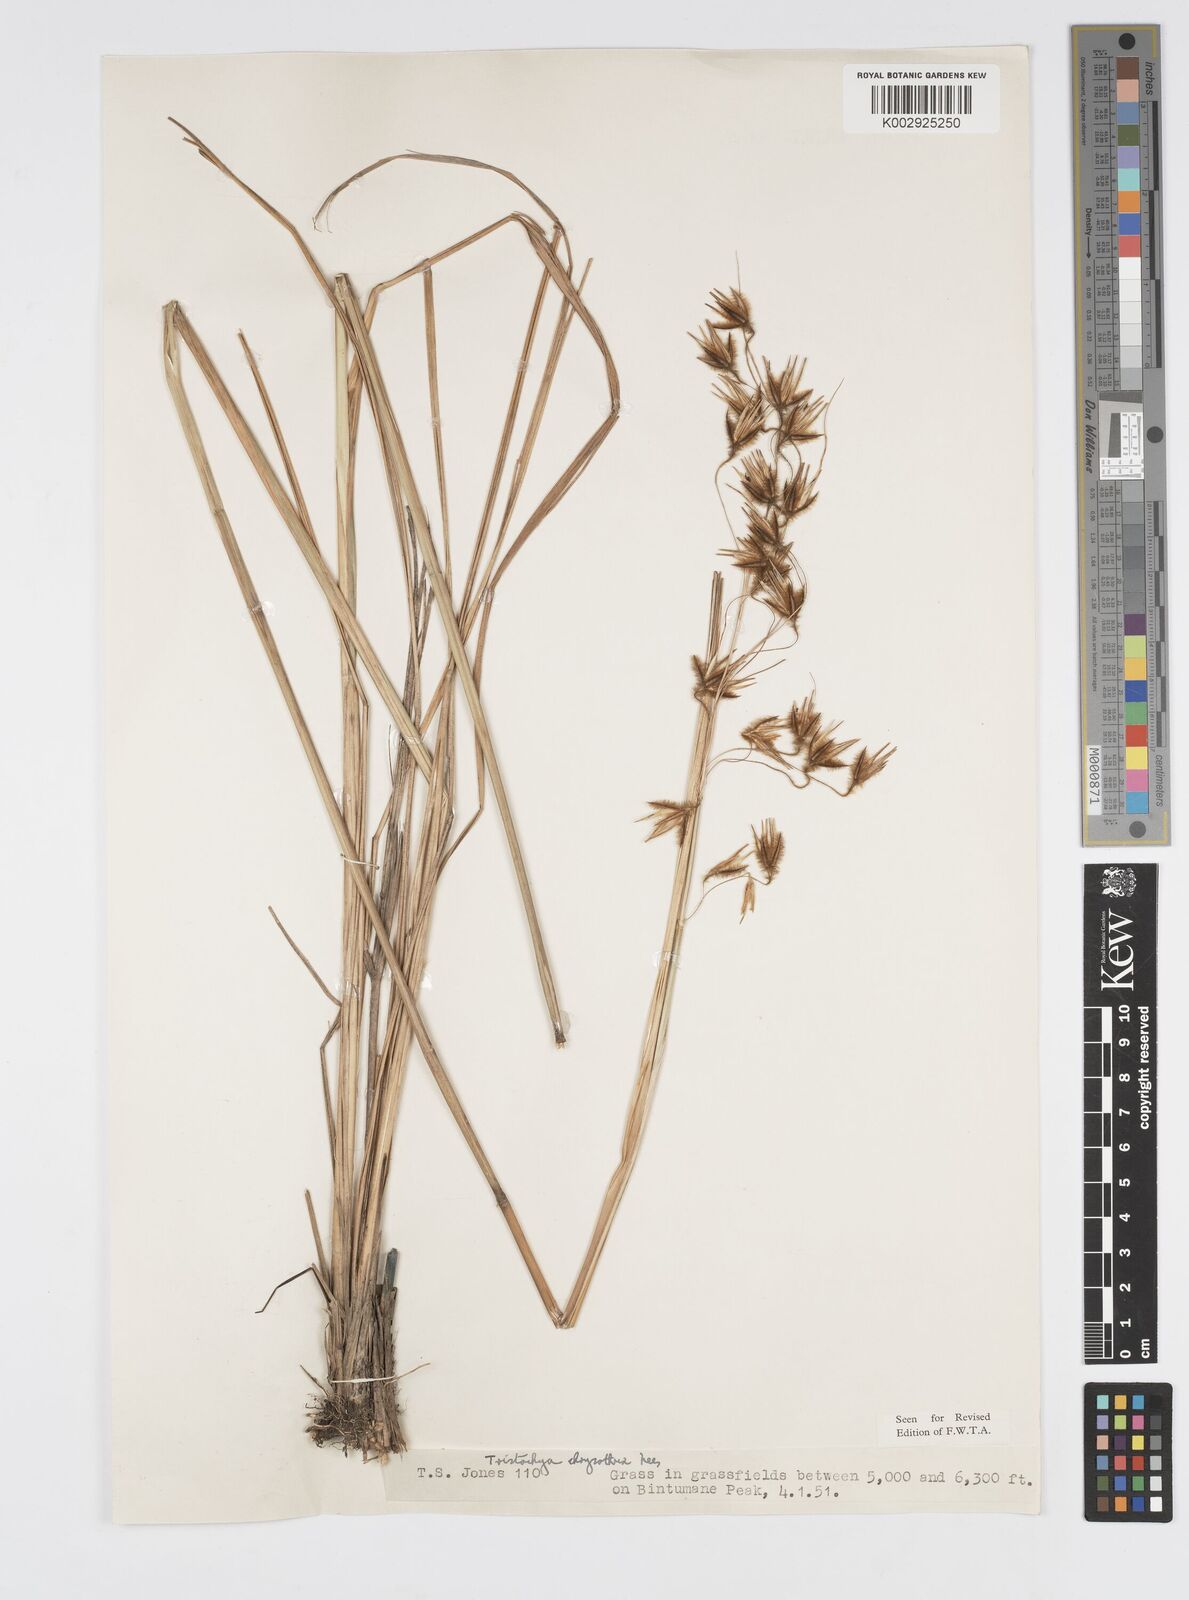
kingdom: Plantae
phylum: Tracheophyta
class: Liliopsida
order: Poales
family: Poaceae
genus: Loudetiopsis
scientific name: Loudetiopsis chrysothrix
